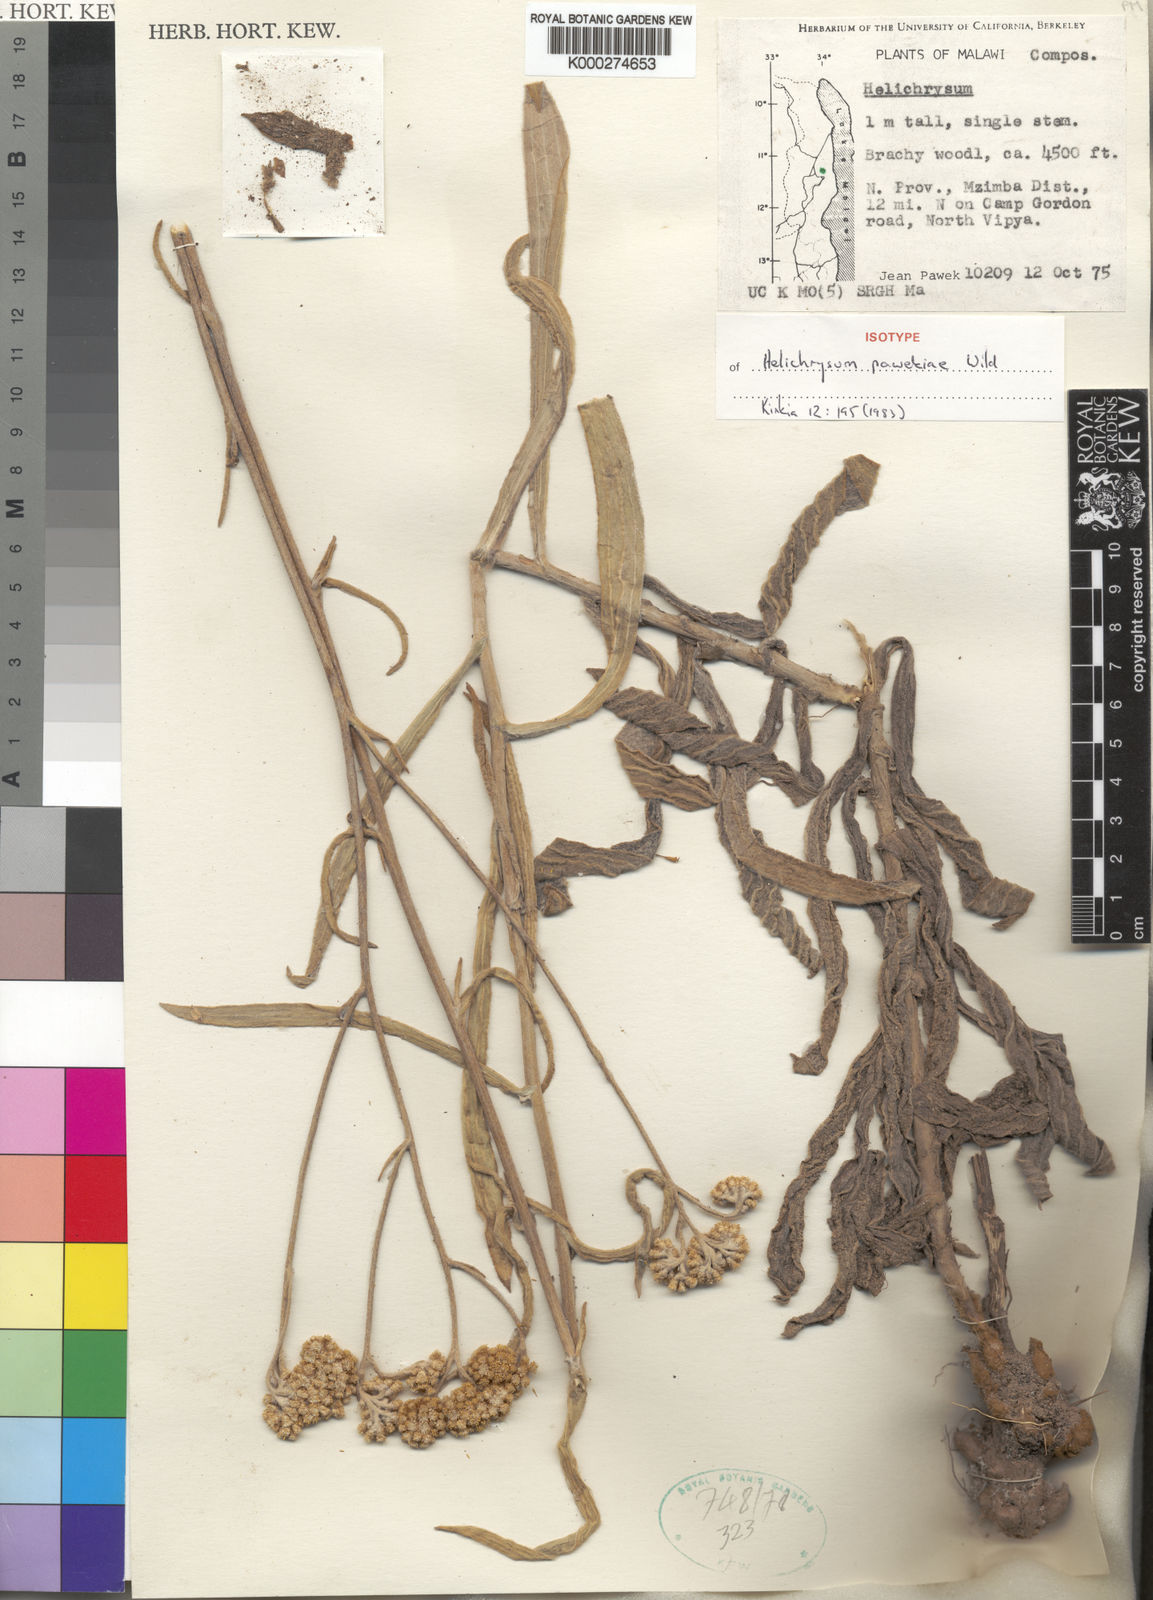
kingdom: Plantae
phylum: Tracheophyta
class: Magnoliopsida
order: Asterales
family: Asteraceae
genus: Helichrysum
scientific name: Helichrysum pawekiae
